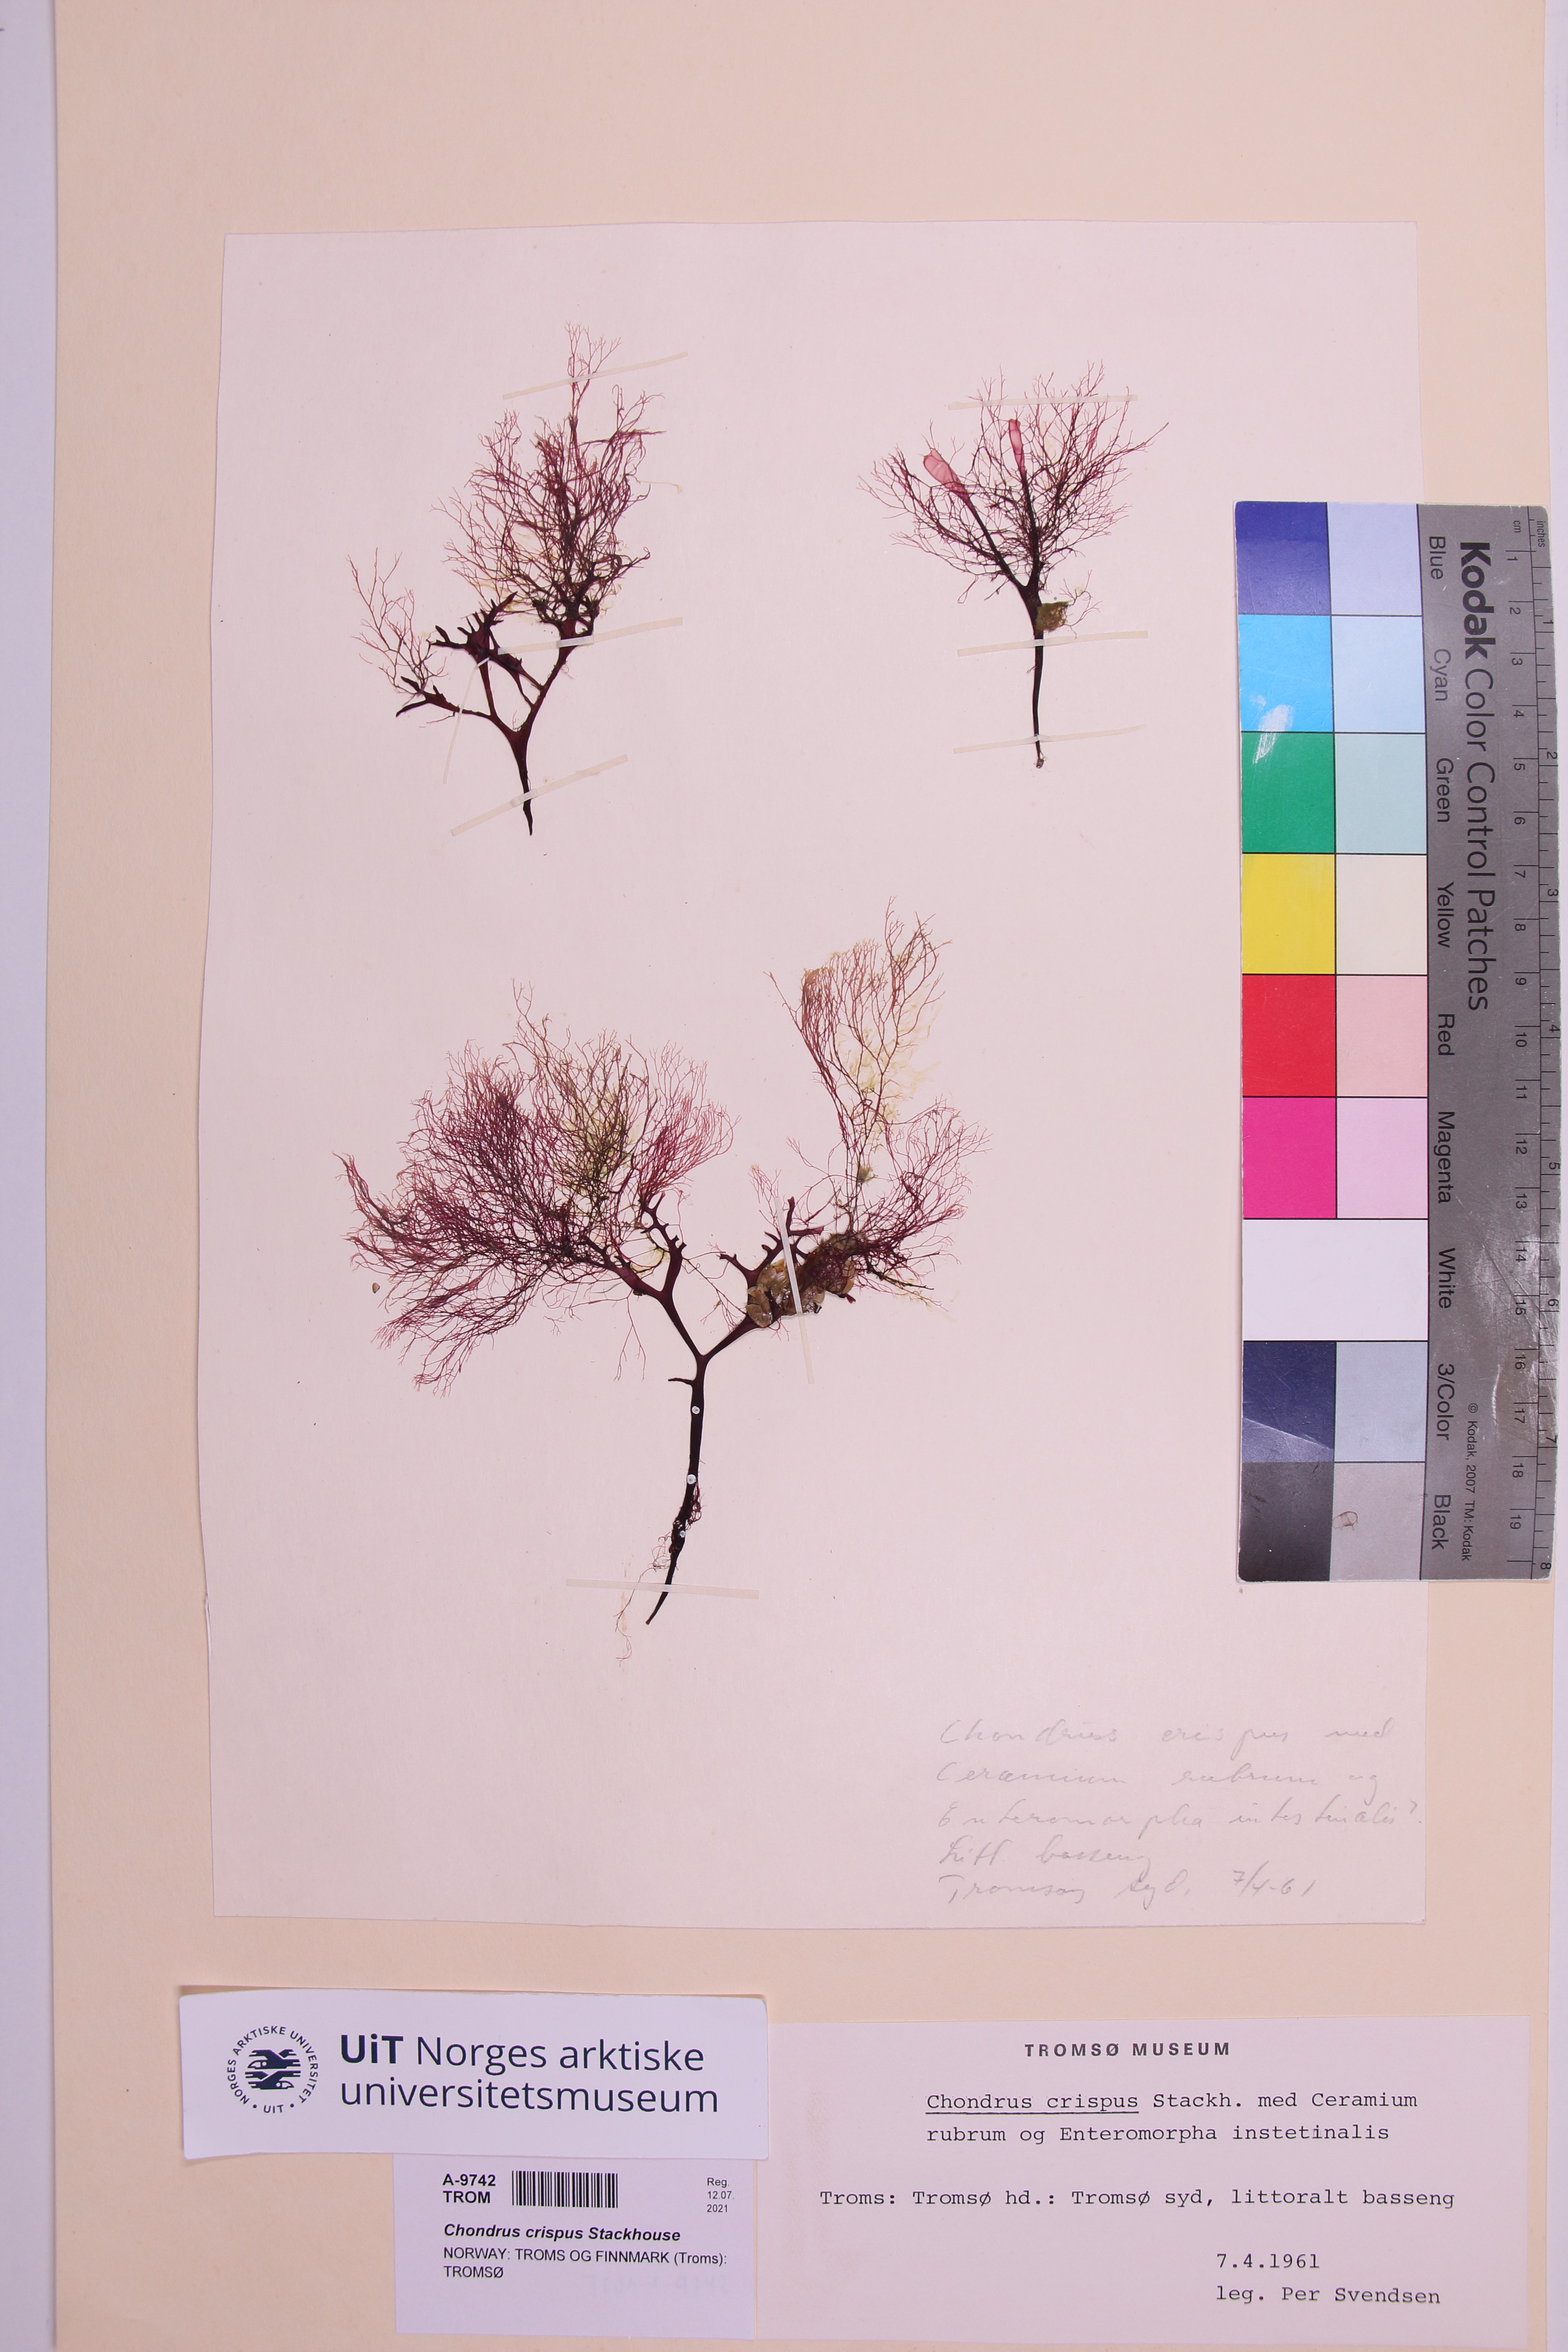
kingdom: Plantae
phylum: Rhodophyta
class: Florideophyceae
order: Gigartinales
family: Gigartinaceae
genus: Chondrus
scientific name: Chondrus crispus
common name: Carrageen
